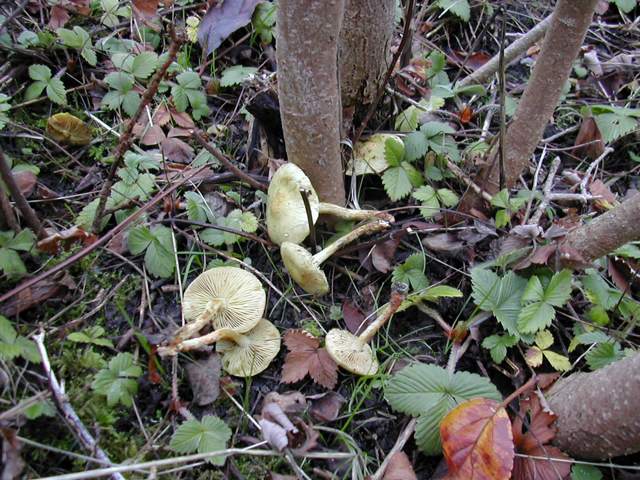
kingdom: Fungi
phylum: Basidiomycota
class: Agaricomycetes
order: Agaricales
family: Strophariaceae
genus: Pholiota
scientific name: Pholiota gummosa
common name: grøngul skælhat
